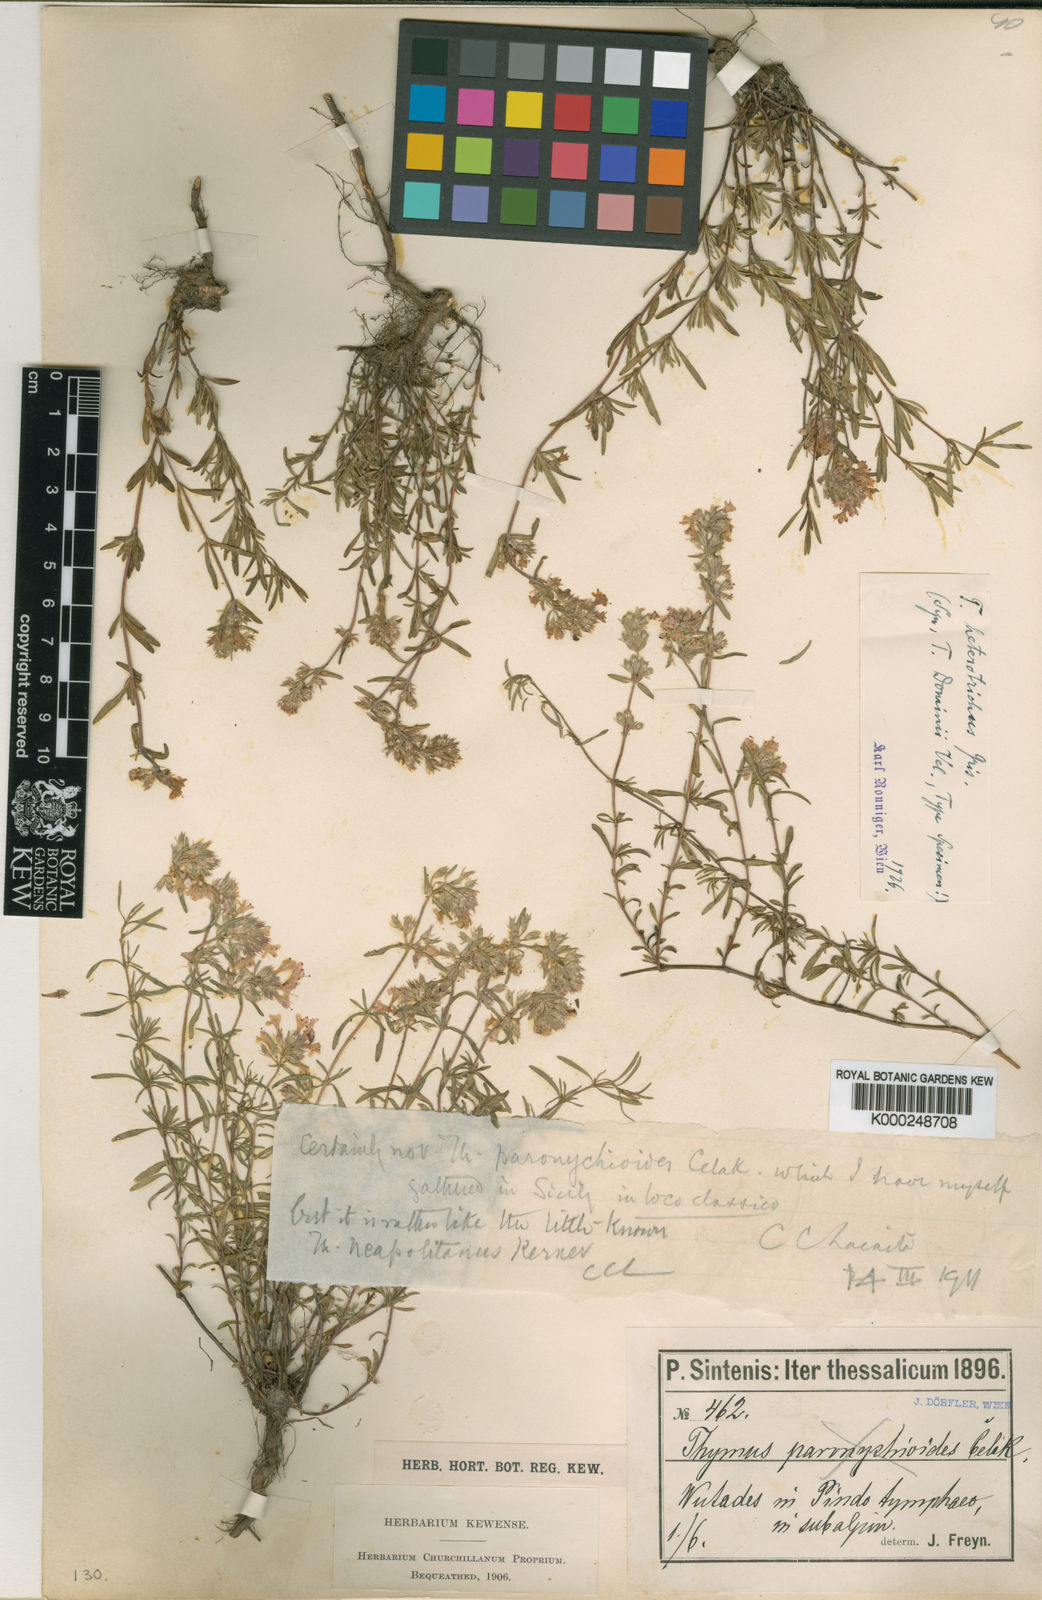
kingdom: Plantae
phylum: Tracheophyta
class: Magnoliopsida
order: Lamiales
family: Lamiaceae
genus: Thymus
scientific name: Thymus sibthorpii
